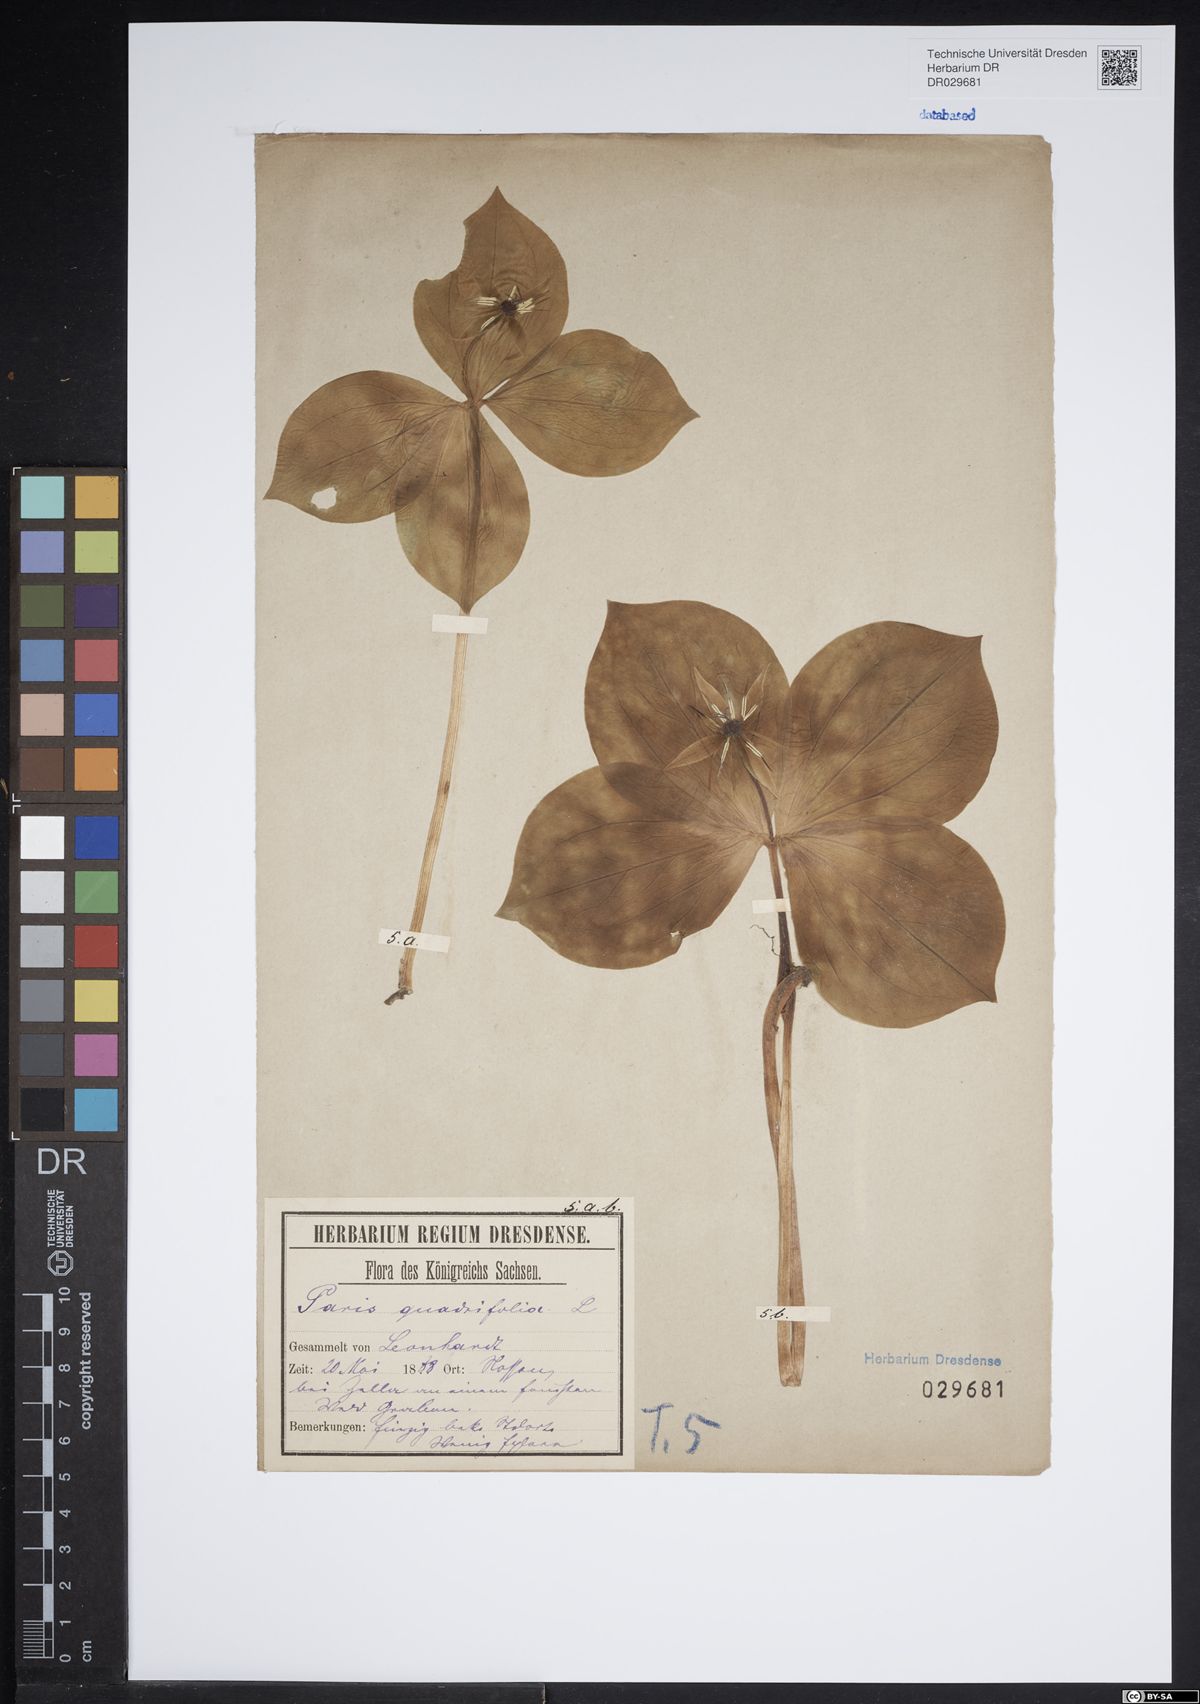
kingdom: Plantae
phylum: Tracheophyta
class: Liliopsida
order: Liliales
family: Melanthiaceae
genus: Paris
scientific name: Paris quadrifolia
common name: Herb-paris
